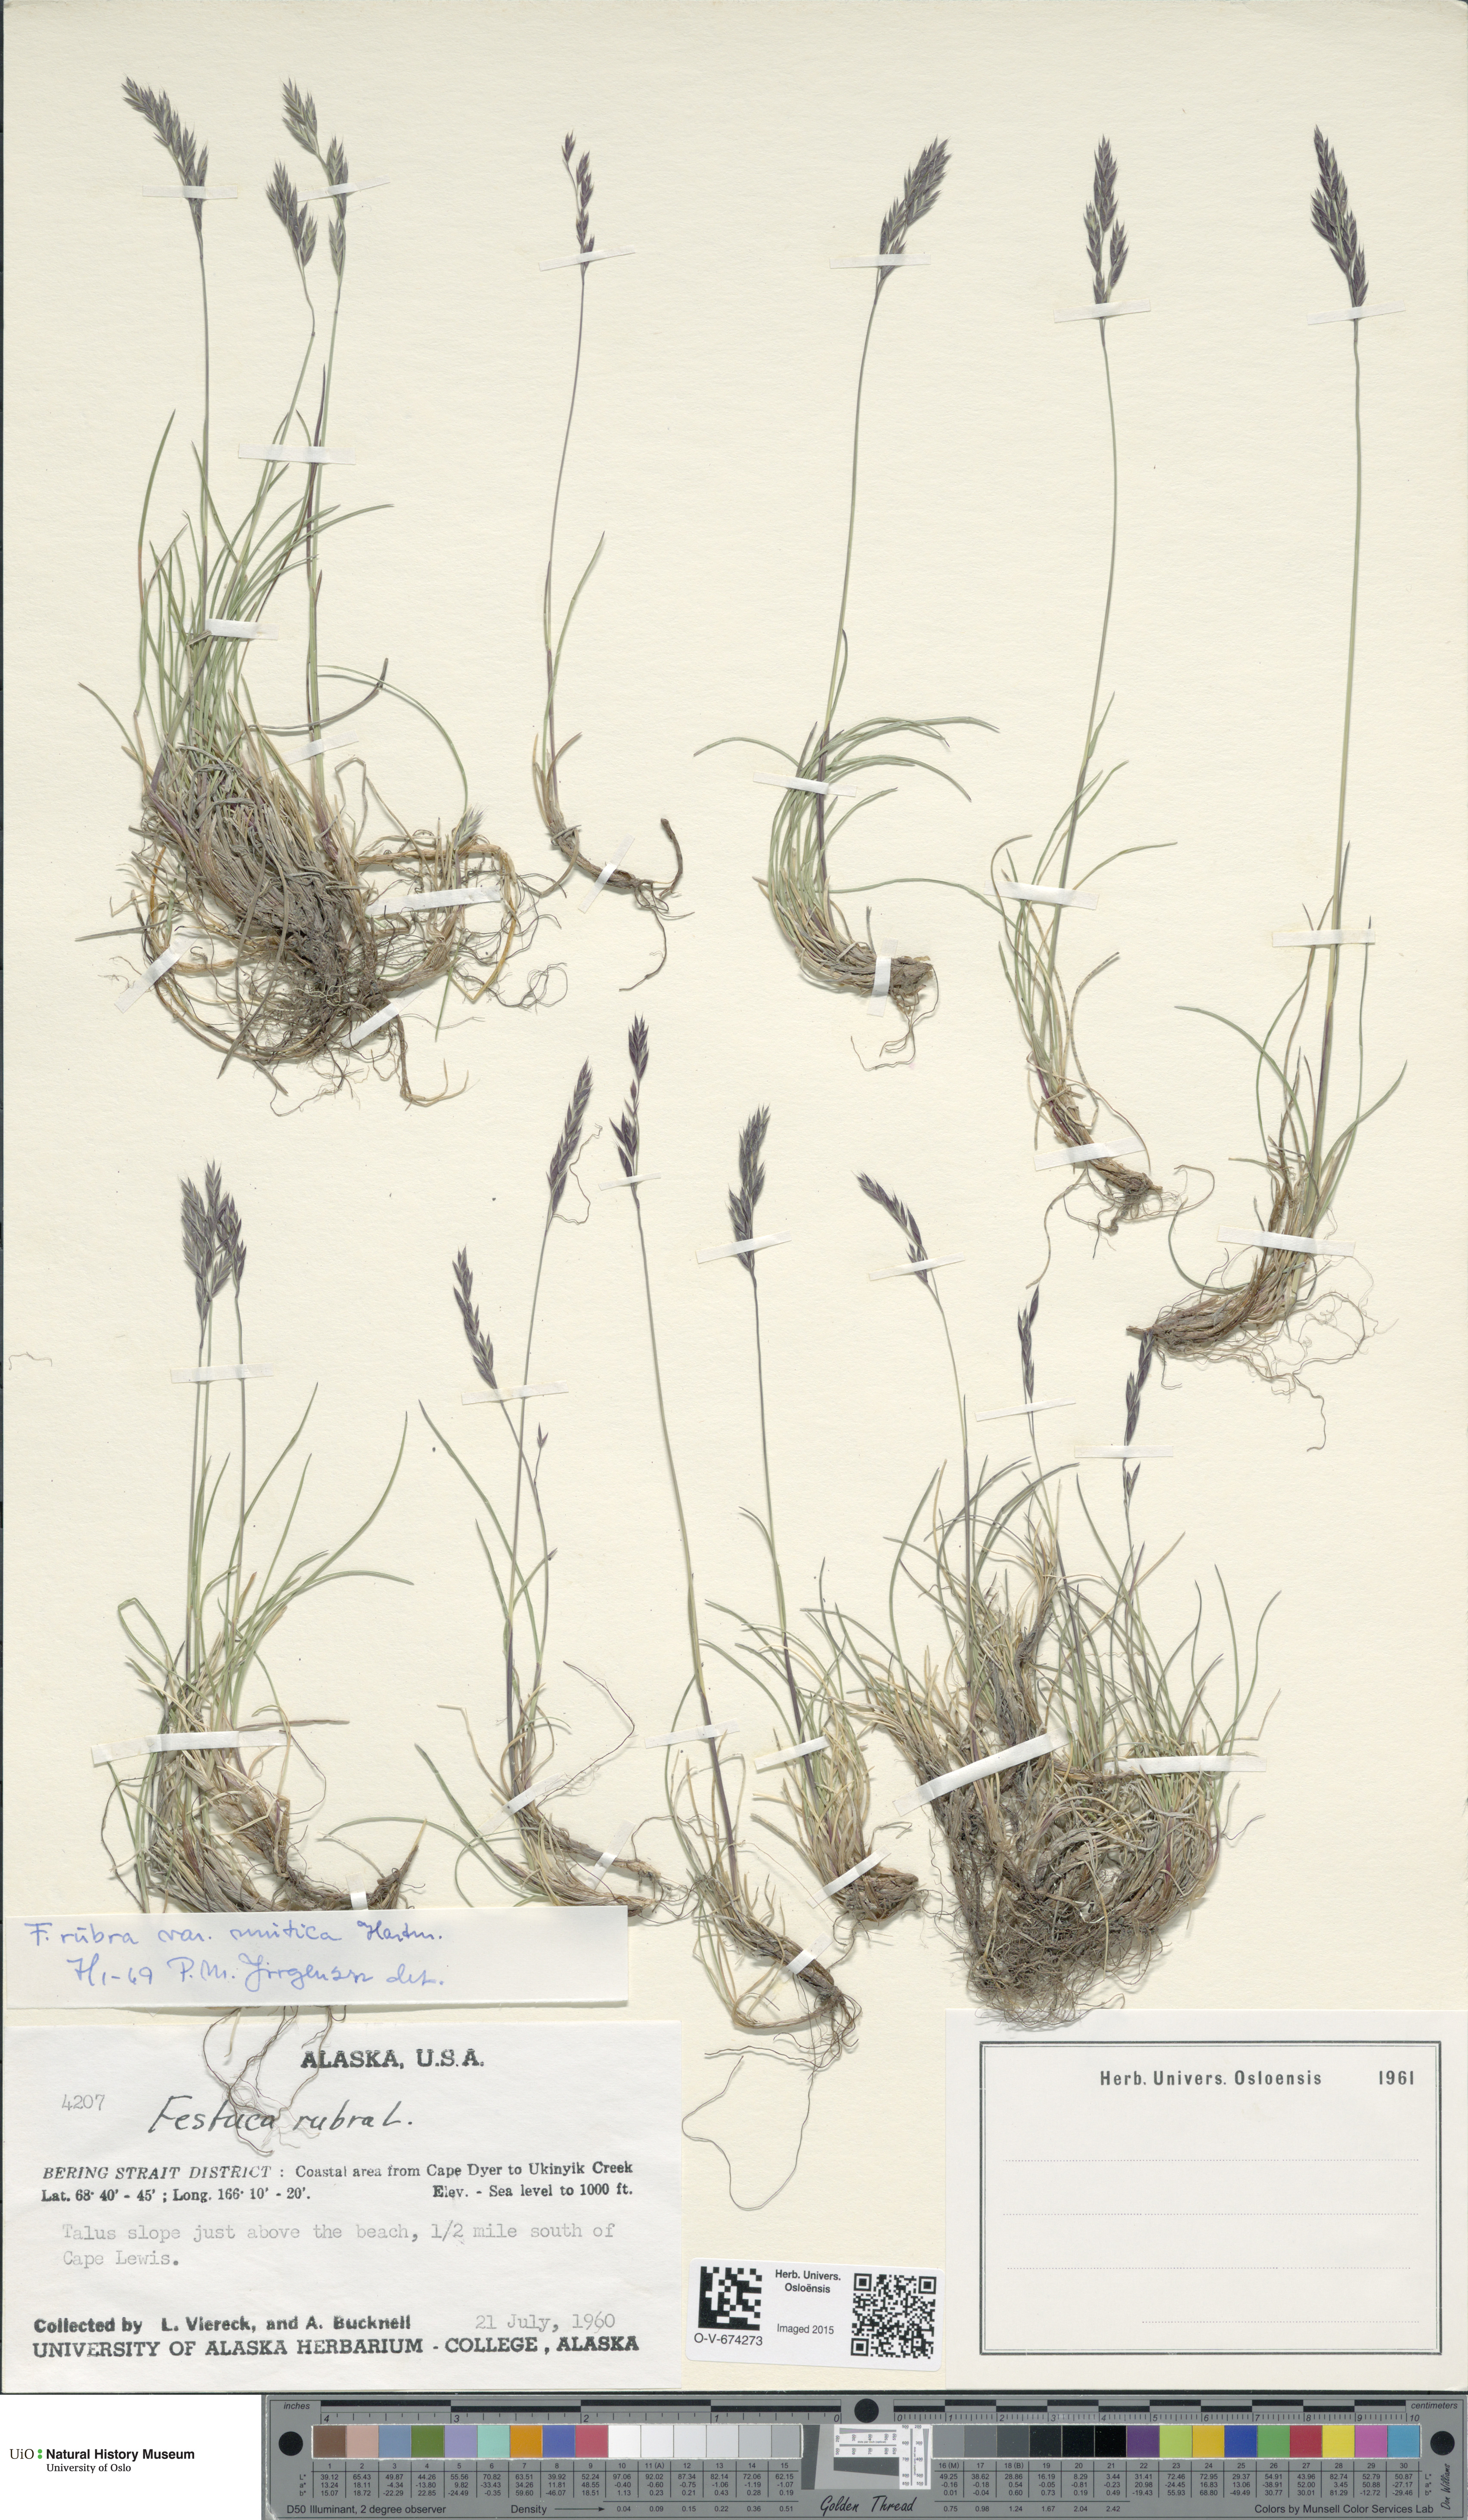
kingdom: Plantae
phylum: Tracheophyta
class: Liliopsida
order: Poales
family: Poaceae
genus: Festuca
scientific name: Festuca richardsonii
